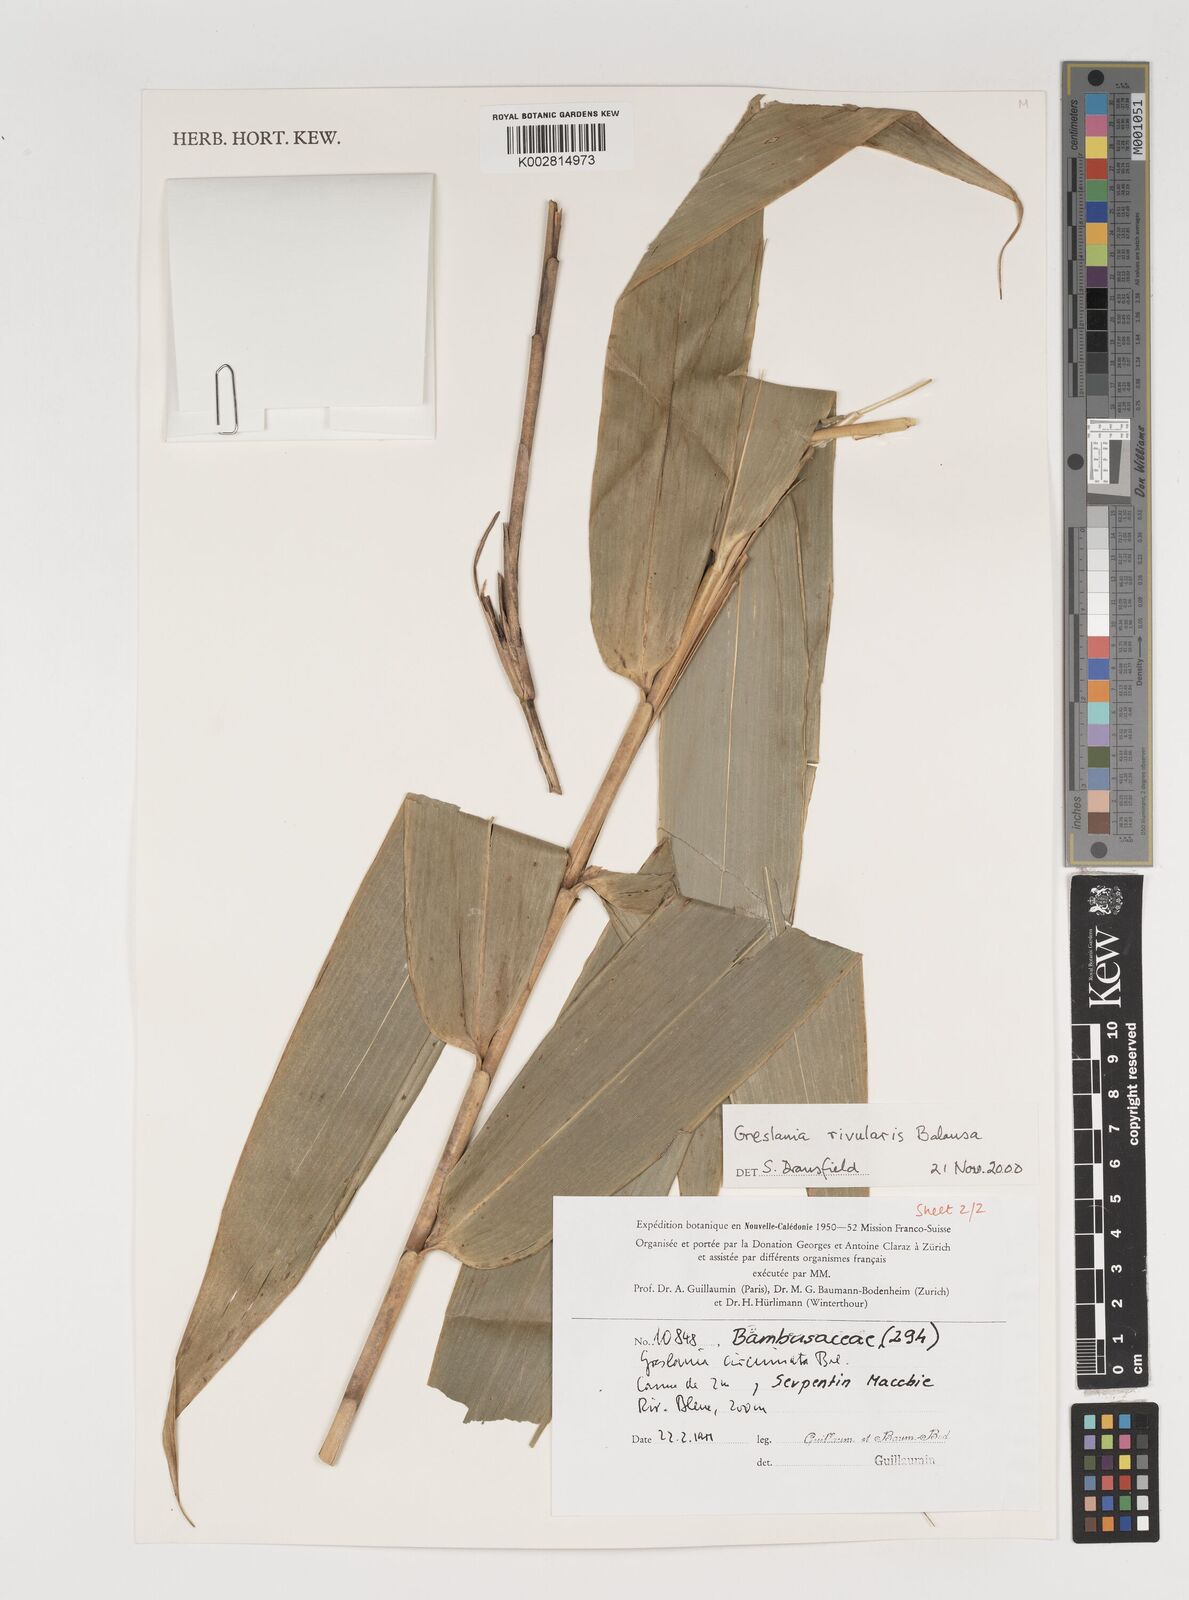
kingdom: Plantae
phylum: Tracheophyta
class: Liliopsida
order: Poales
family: Poaceae
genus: Greslania
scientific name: Greslania rivularis
